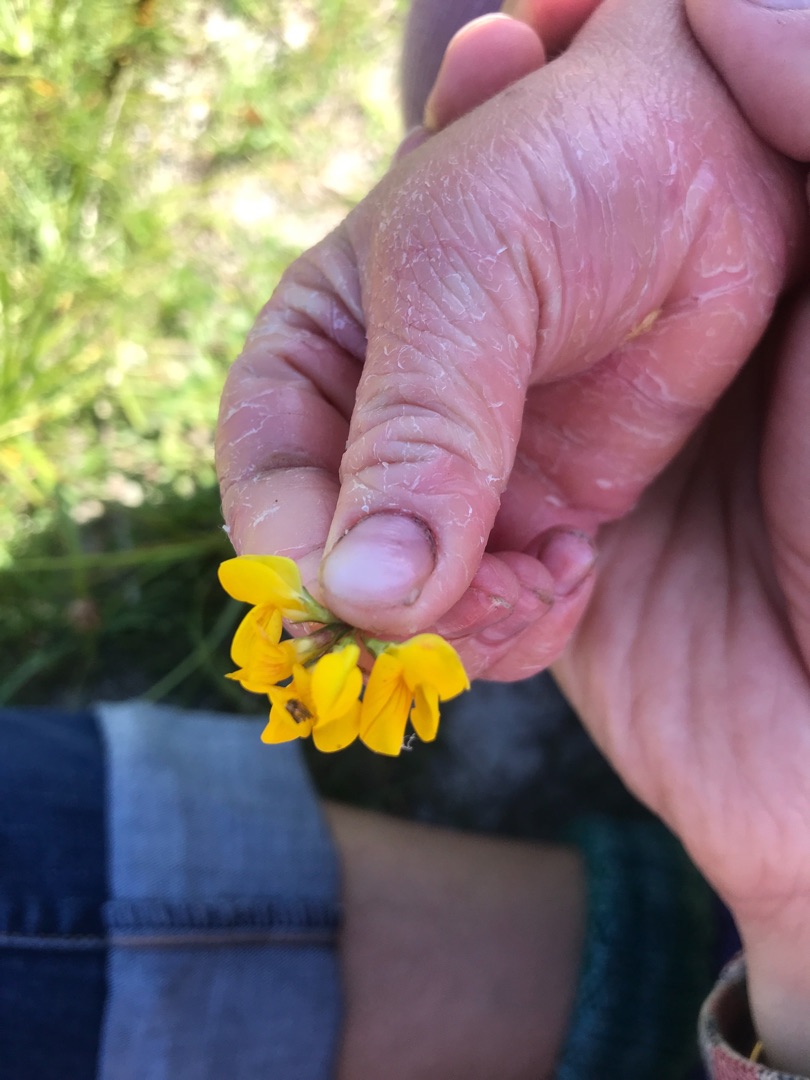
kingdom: Plantae
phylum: Tracheophyta
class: Magnoliopsida
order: Fabales
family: Fabaceae
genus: Lotus
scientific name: Lotus
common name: Kællingetandslægten
